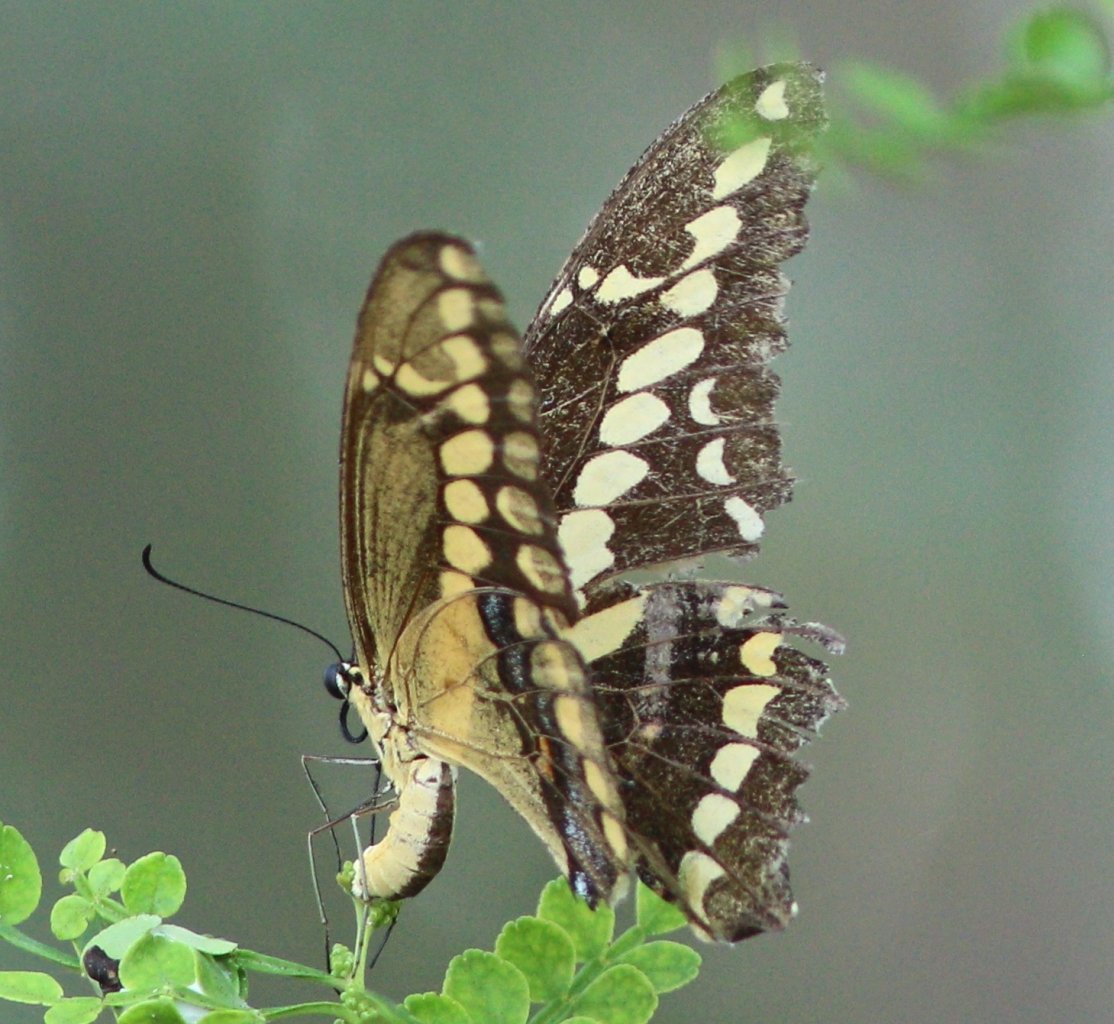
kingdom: Animalia
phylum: Arthropoda
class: Insecta
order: Lepidoptera
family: Papilionidae
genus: Papilio
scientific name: Papilio rumiko
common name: Western Giant Swallowtail
